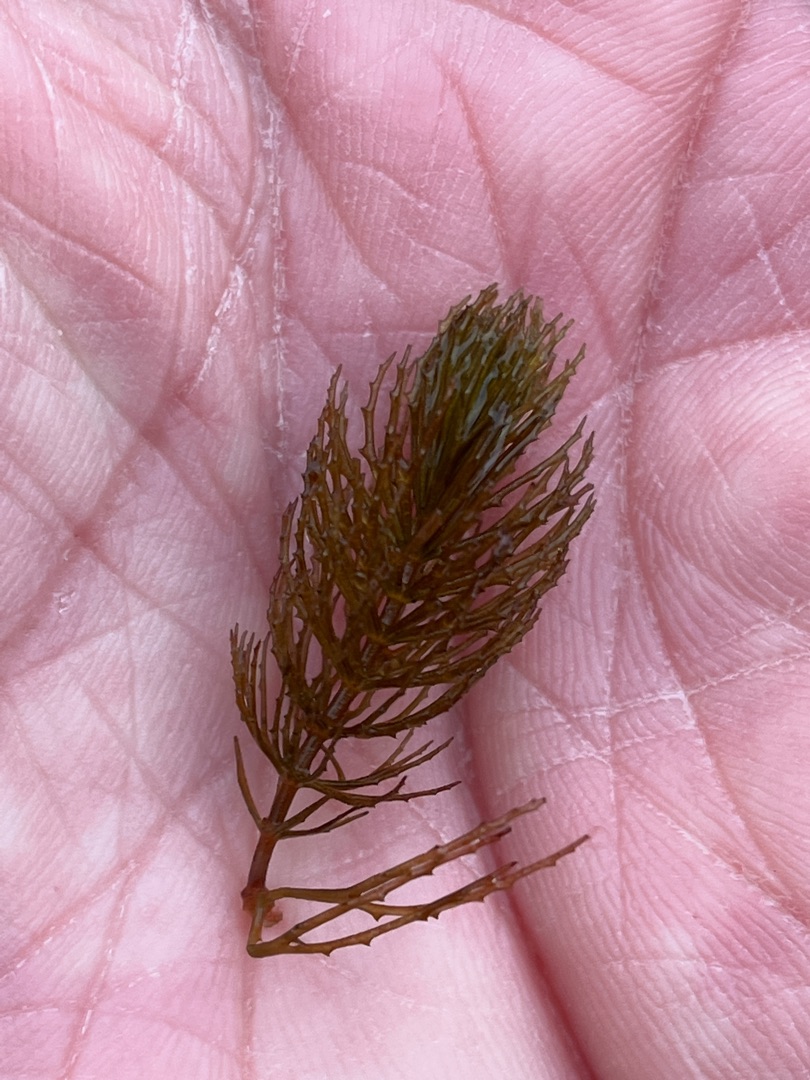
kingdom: Plantae
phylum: Tracheophyta
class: Magnoliopsida
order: Ceratophyllales
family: Ceratophyllaceae
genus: Ceratophyllum
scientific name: Ceratophyllum demersum
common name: Tornfrøet hornblad
